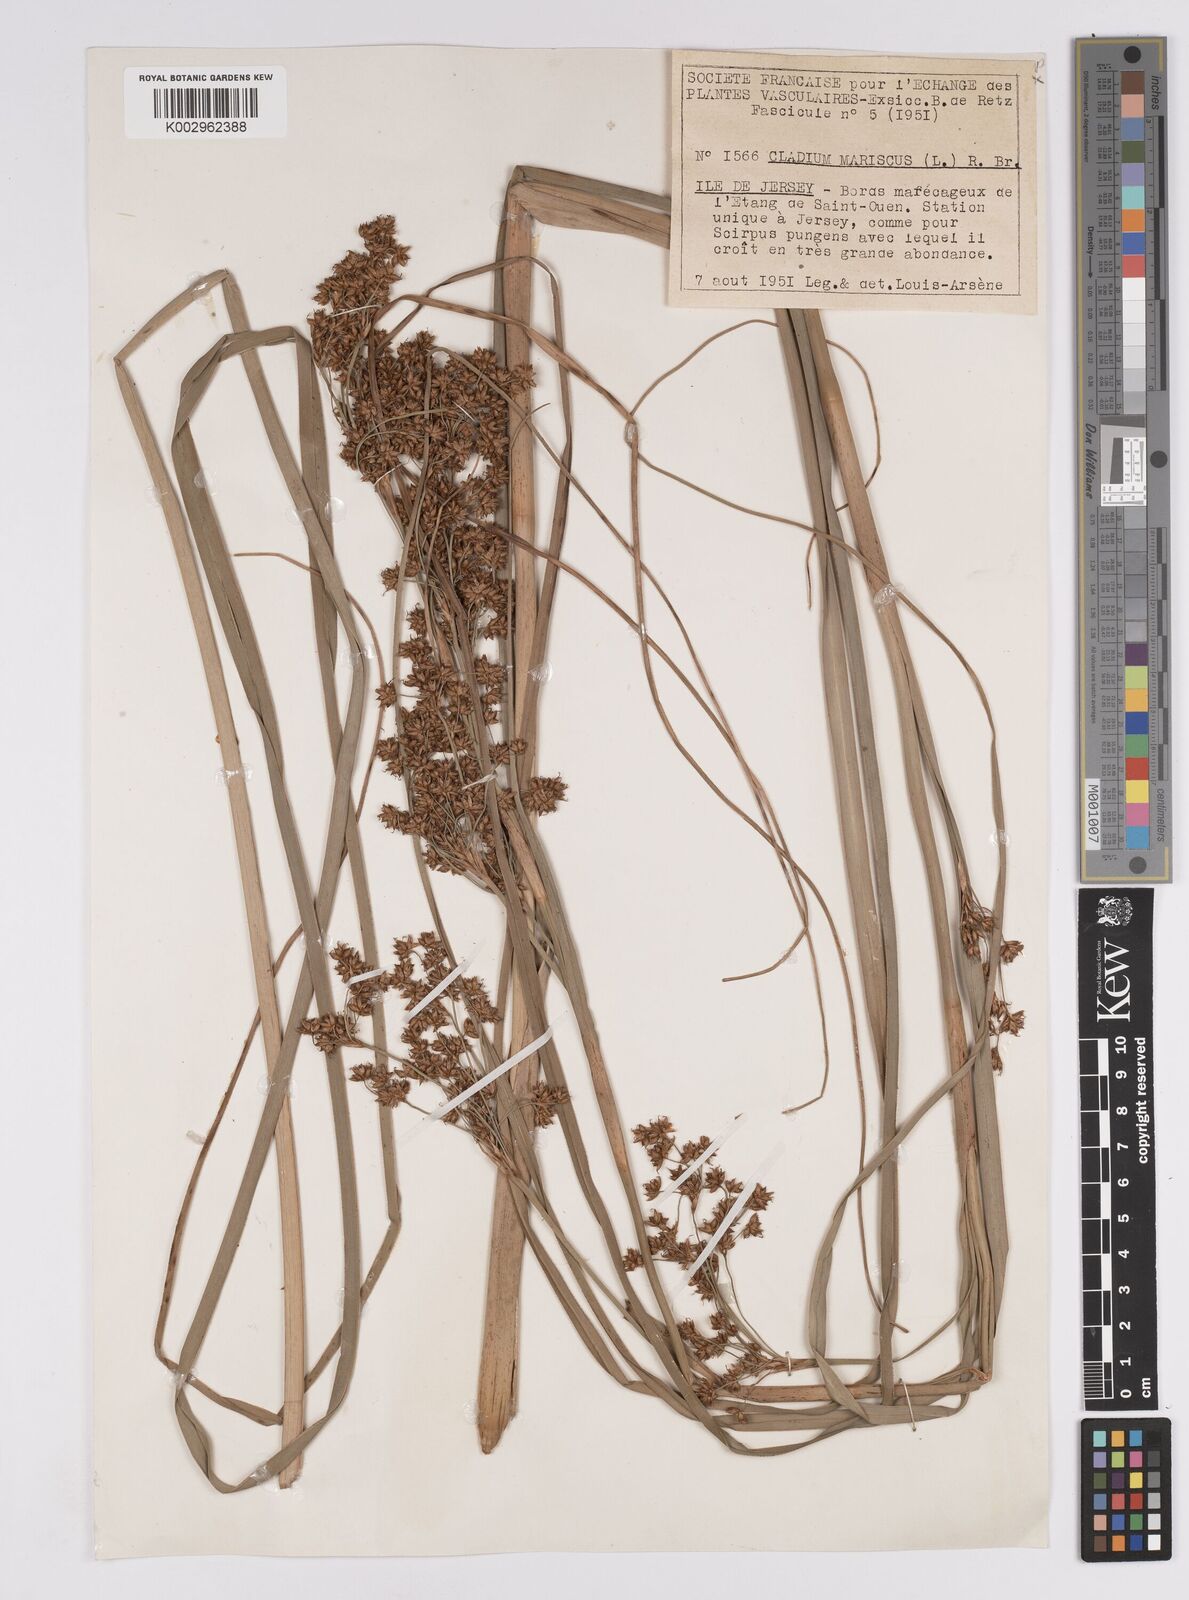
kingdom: Plantae
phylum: Tracheophyta
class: Liliopsida
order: Poales
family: Cyperaceae
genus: Cladium
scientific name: Cladium mariscus
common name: Great fen-sedge
